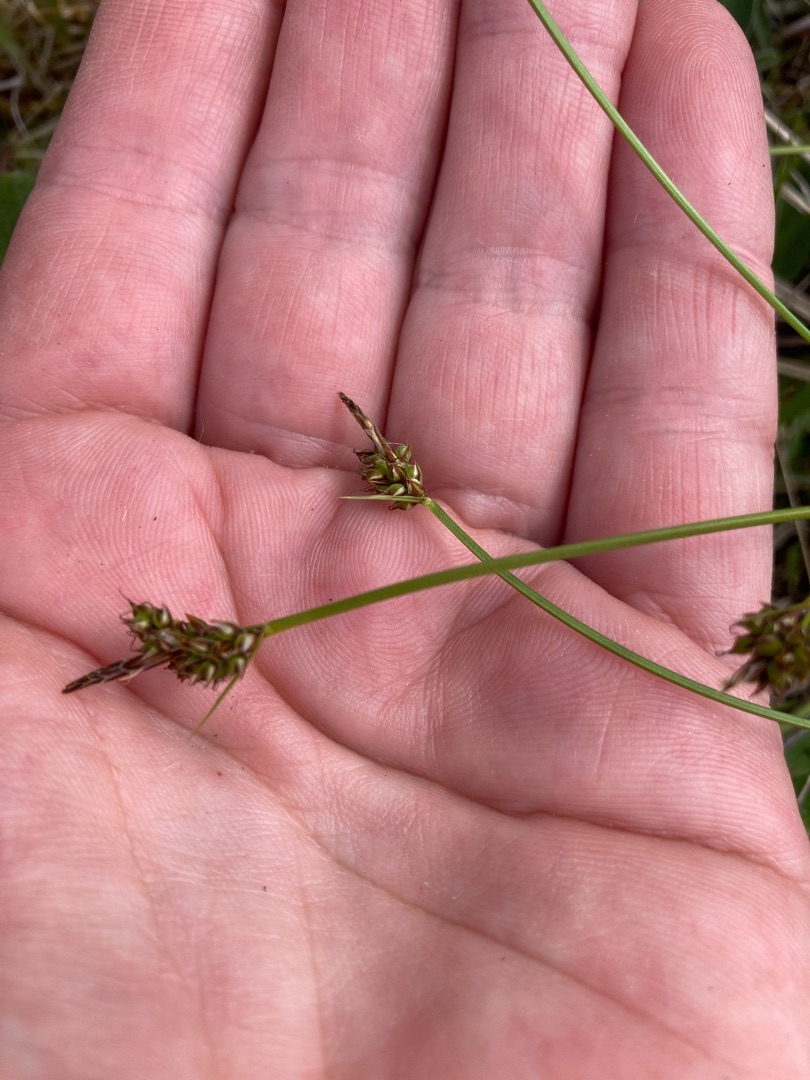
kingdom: Plantae
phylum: Tracheophyta
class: Liliopsida
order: Poales
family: Cyperaceae
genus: Carex
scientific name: Carex pilulifera
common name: Pille-star
